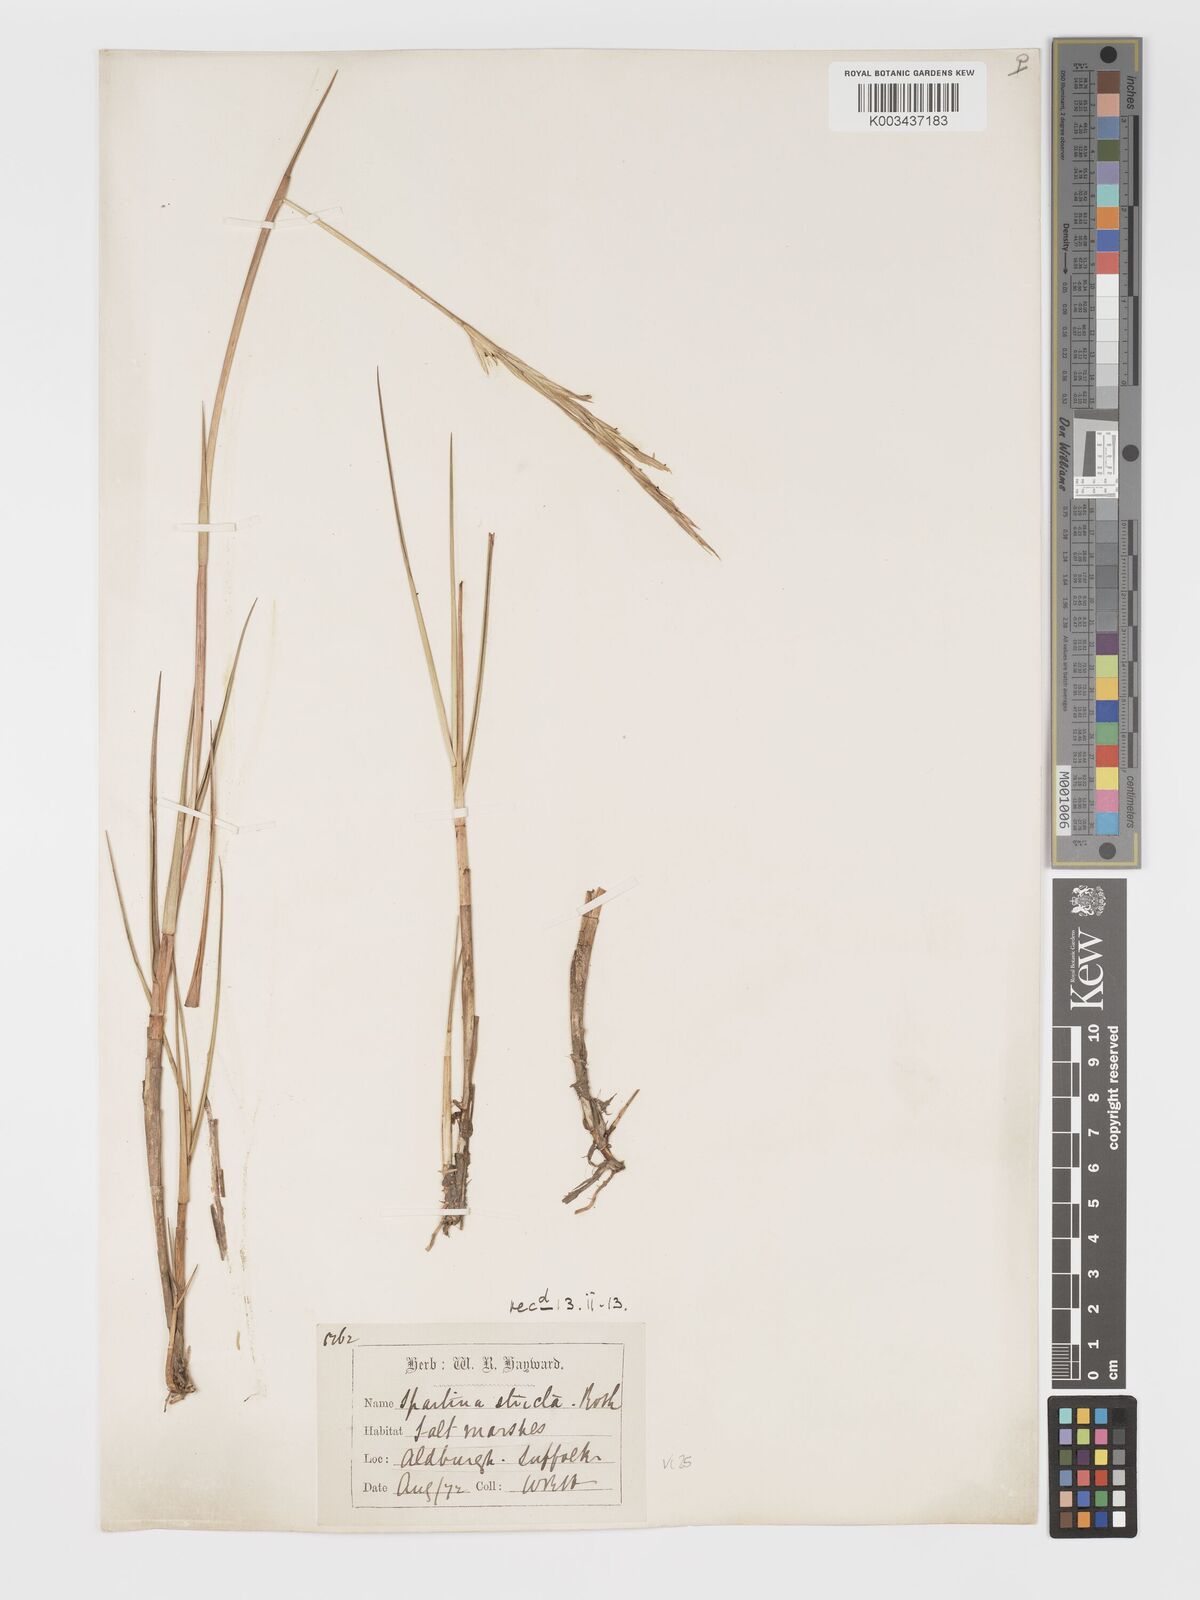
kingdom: Plantae
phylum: Tracheophyta
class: Liliopsida
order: Poales
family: Poaceae
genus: Sporobolus
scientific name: Sporobolus maritimus
